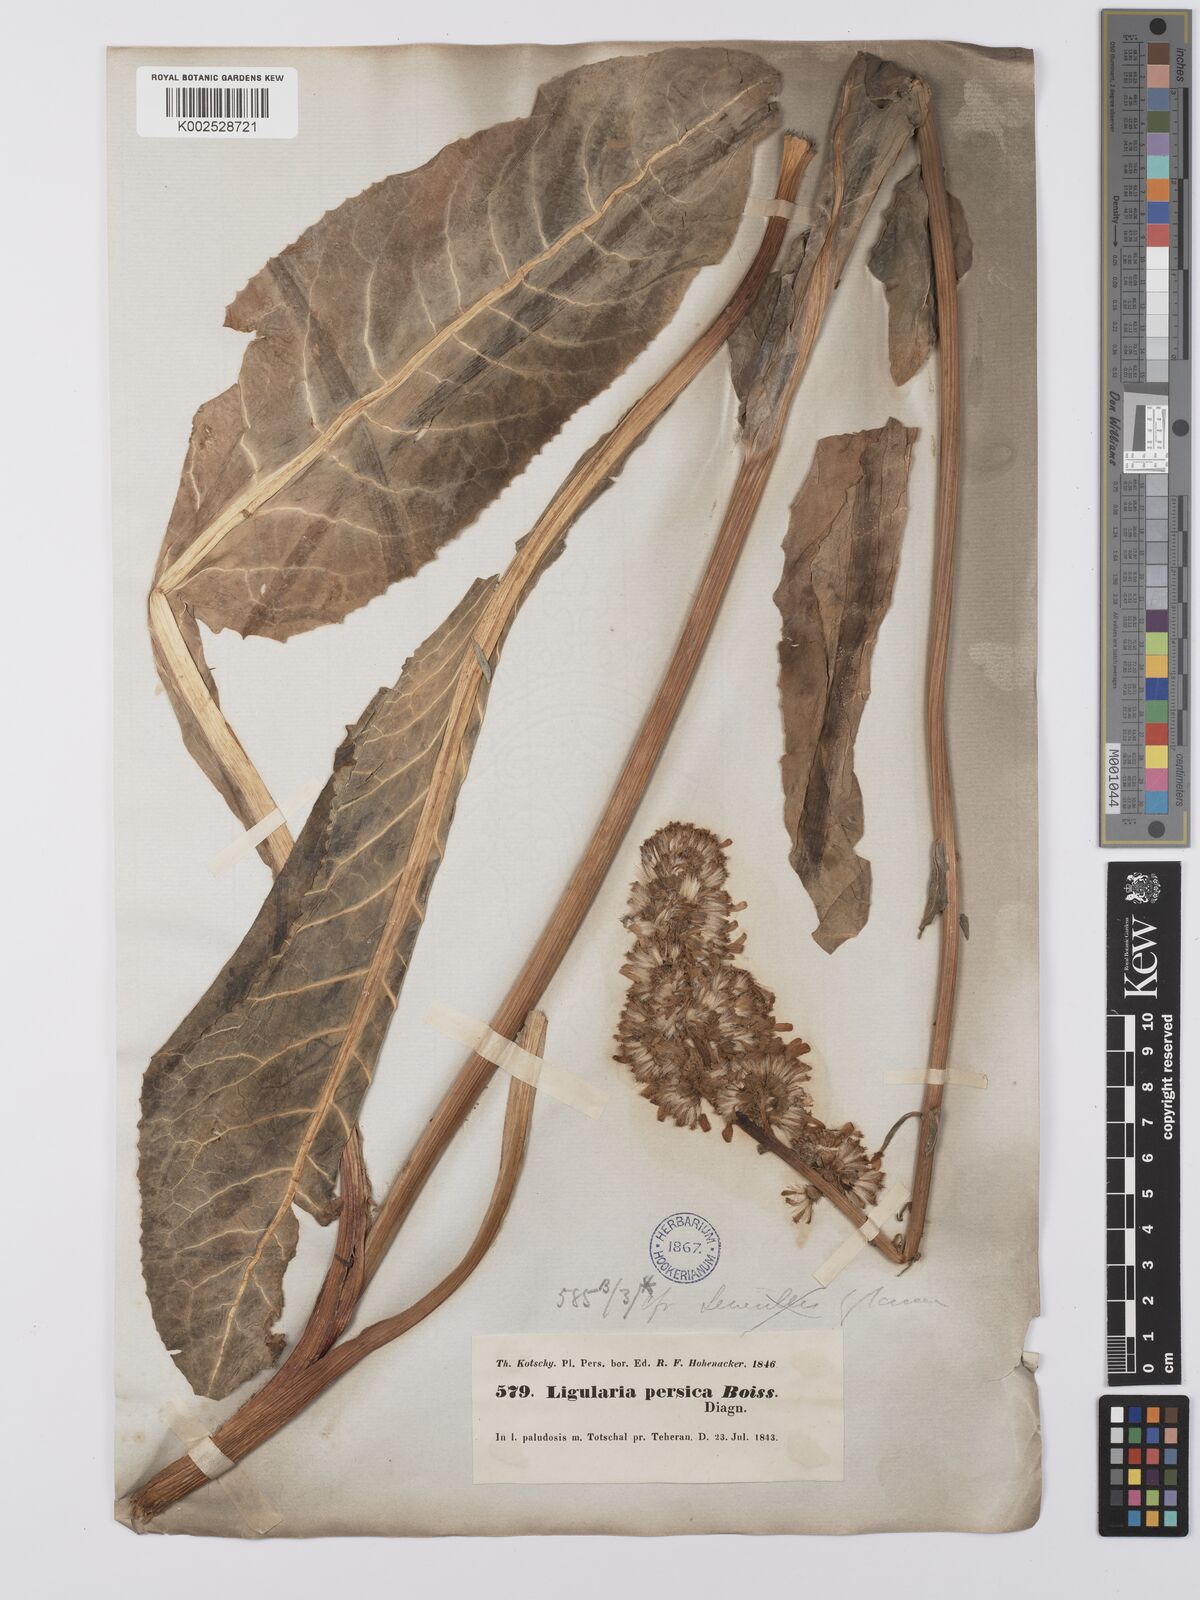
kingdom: Plantae
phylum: Tracheophyta
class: Magnoliopsida
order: Asterales
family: Asteraceae
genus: Dolichorrhiza
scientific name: Dolichorrhiza persica
